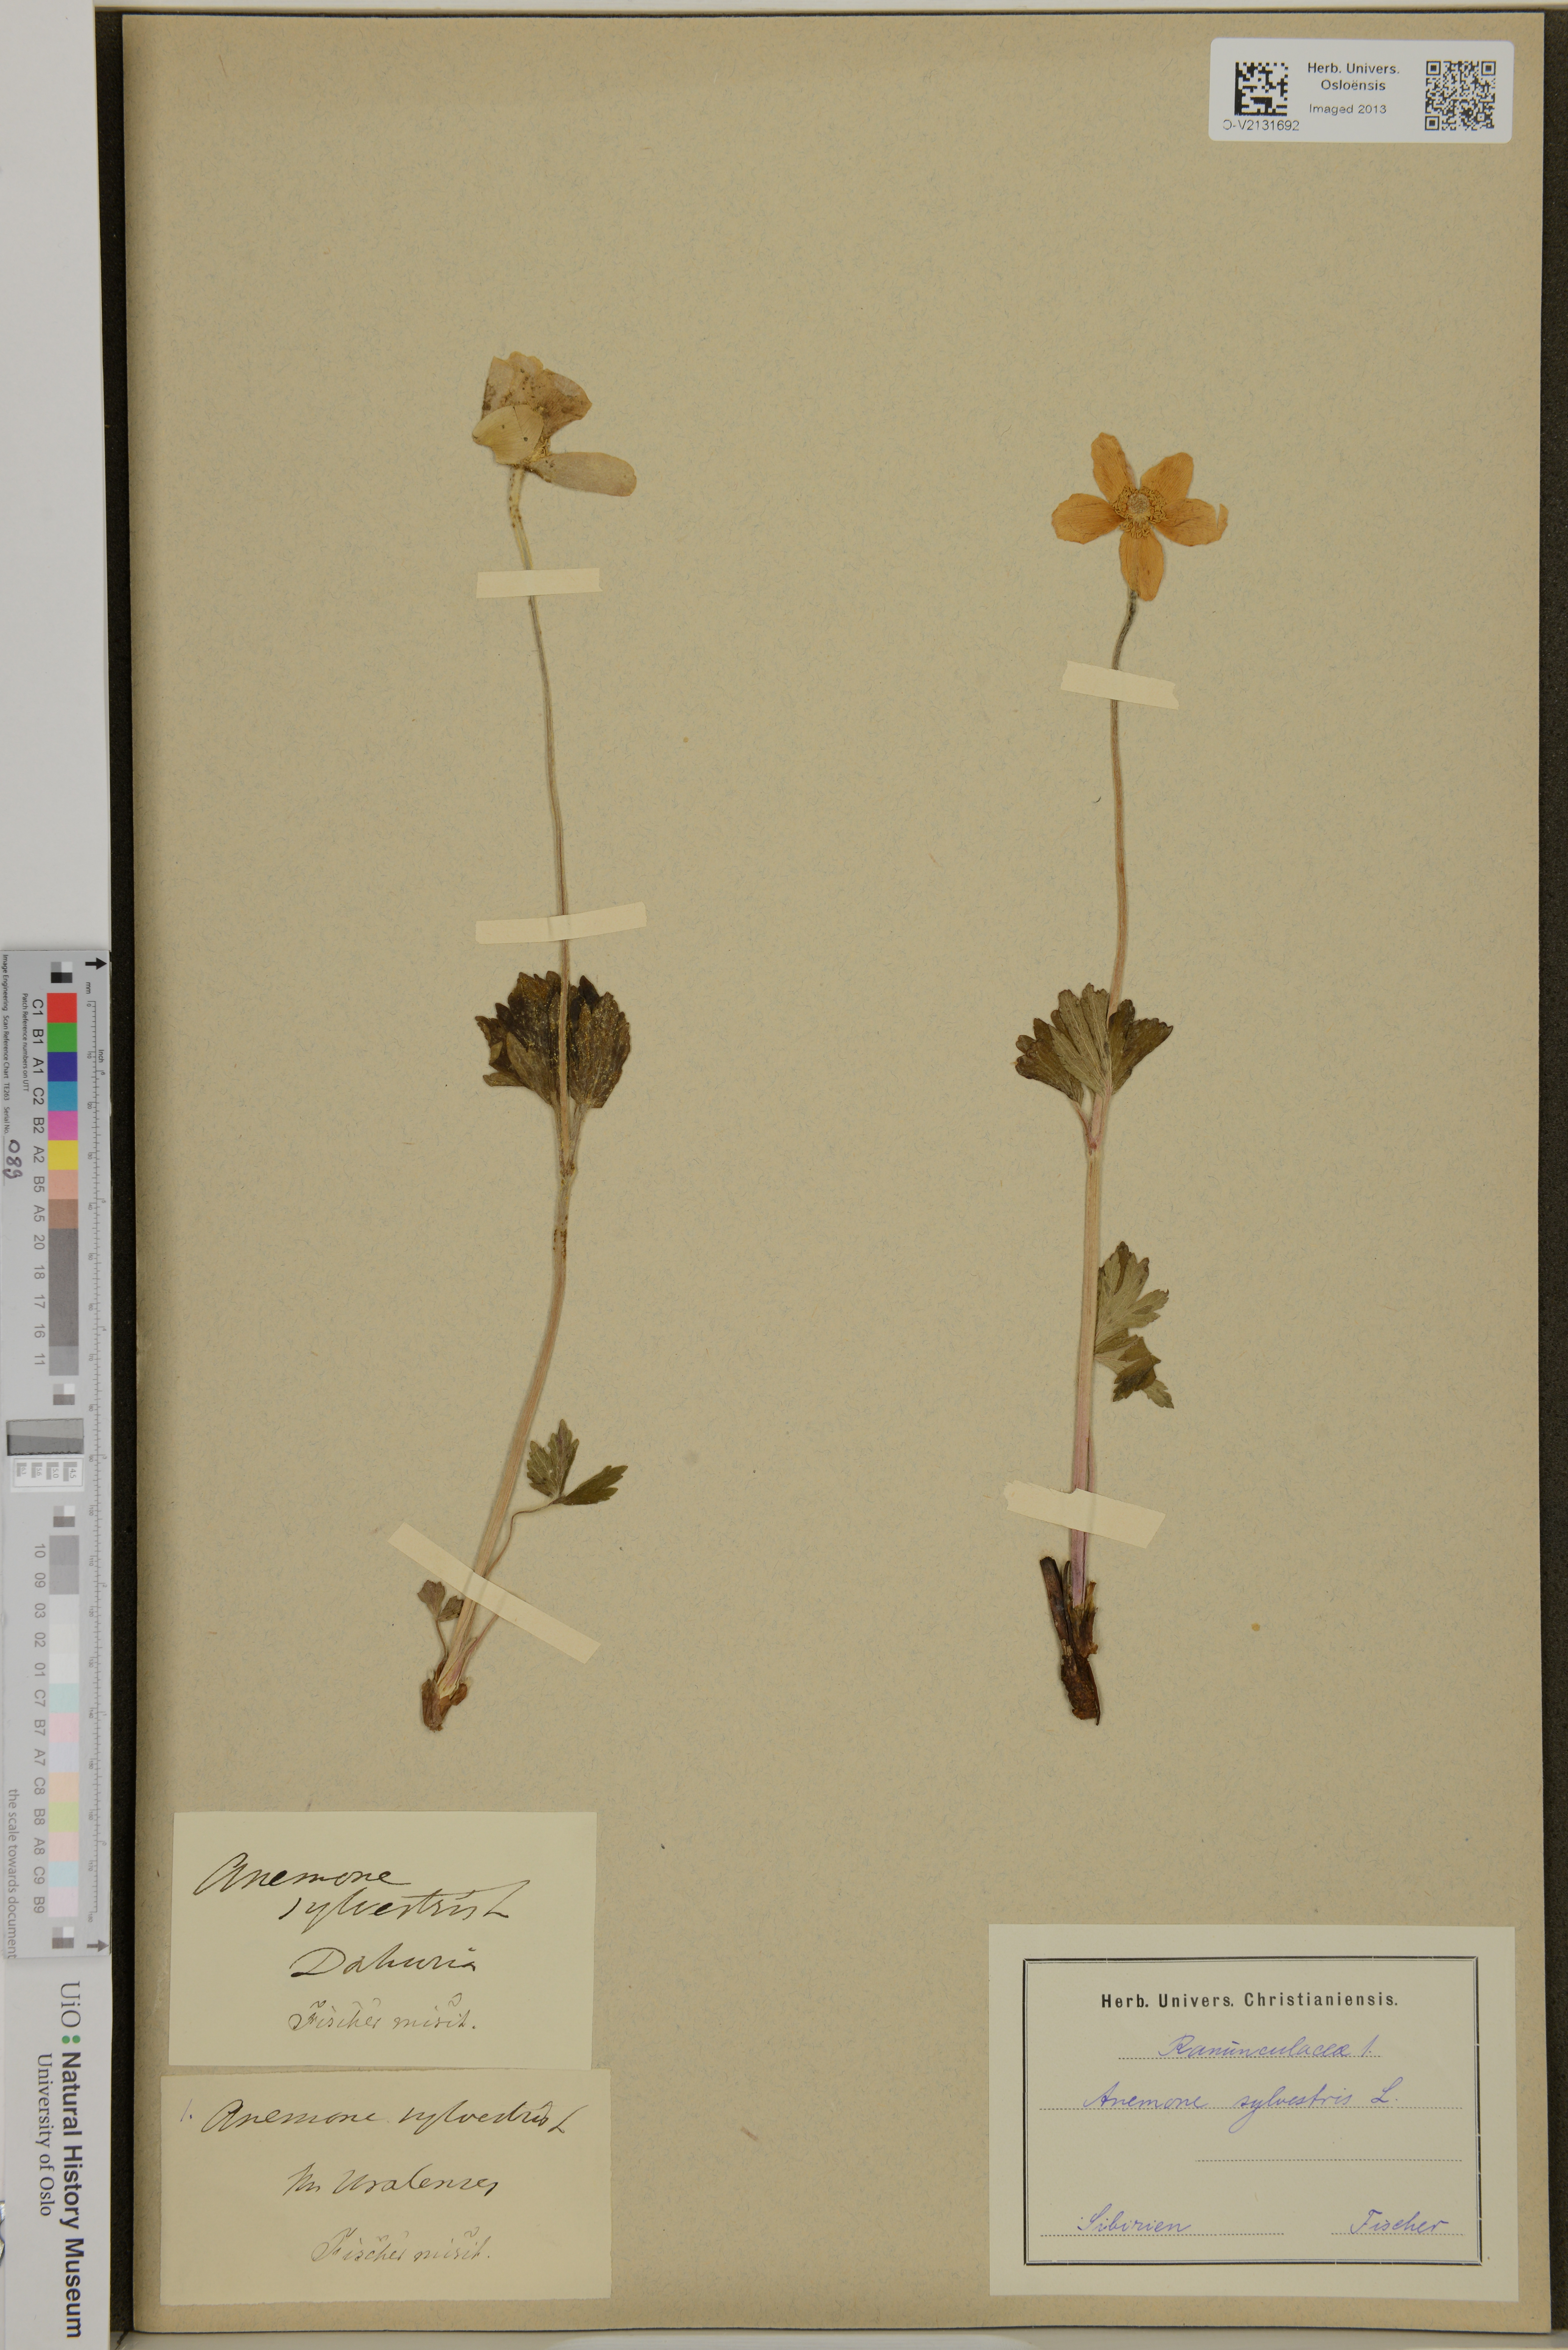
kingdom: Plantae
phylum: Tracheophyta
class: Magnoliopsida
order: Ranunculales
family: Ranunculaceae
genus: Anemone
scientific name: Anemone sylvestris
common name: Snowdrop anemone
